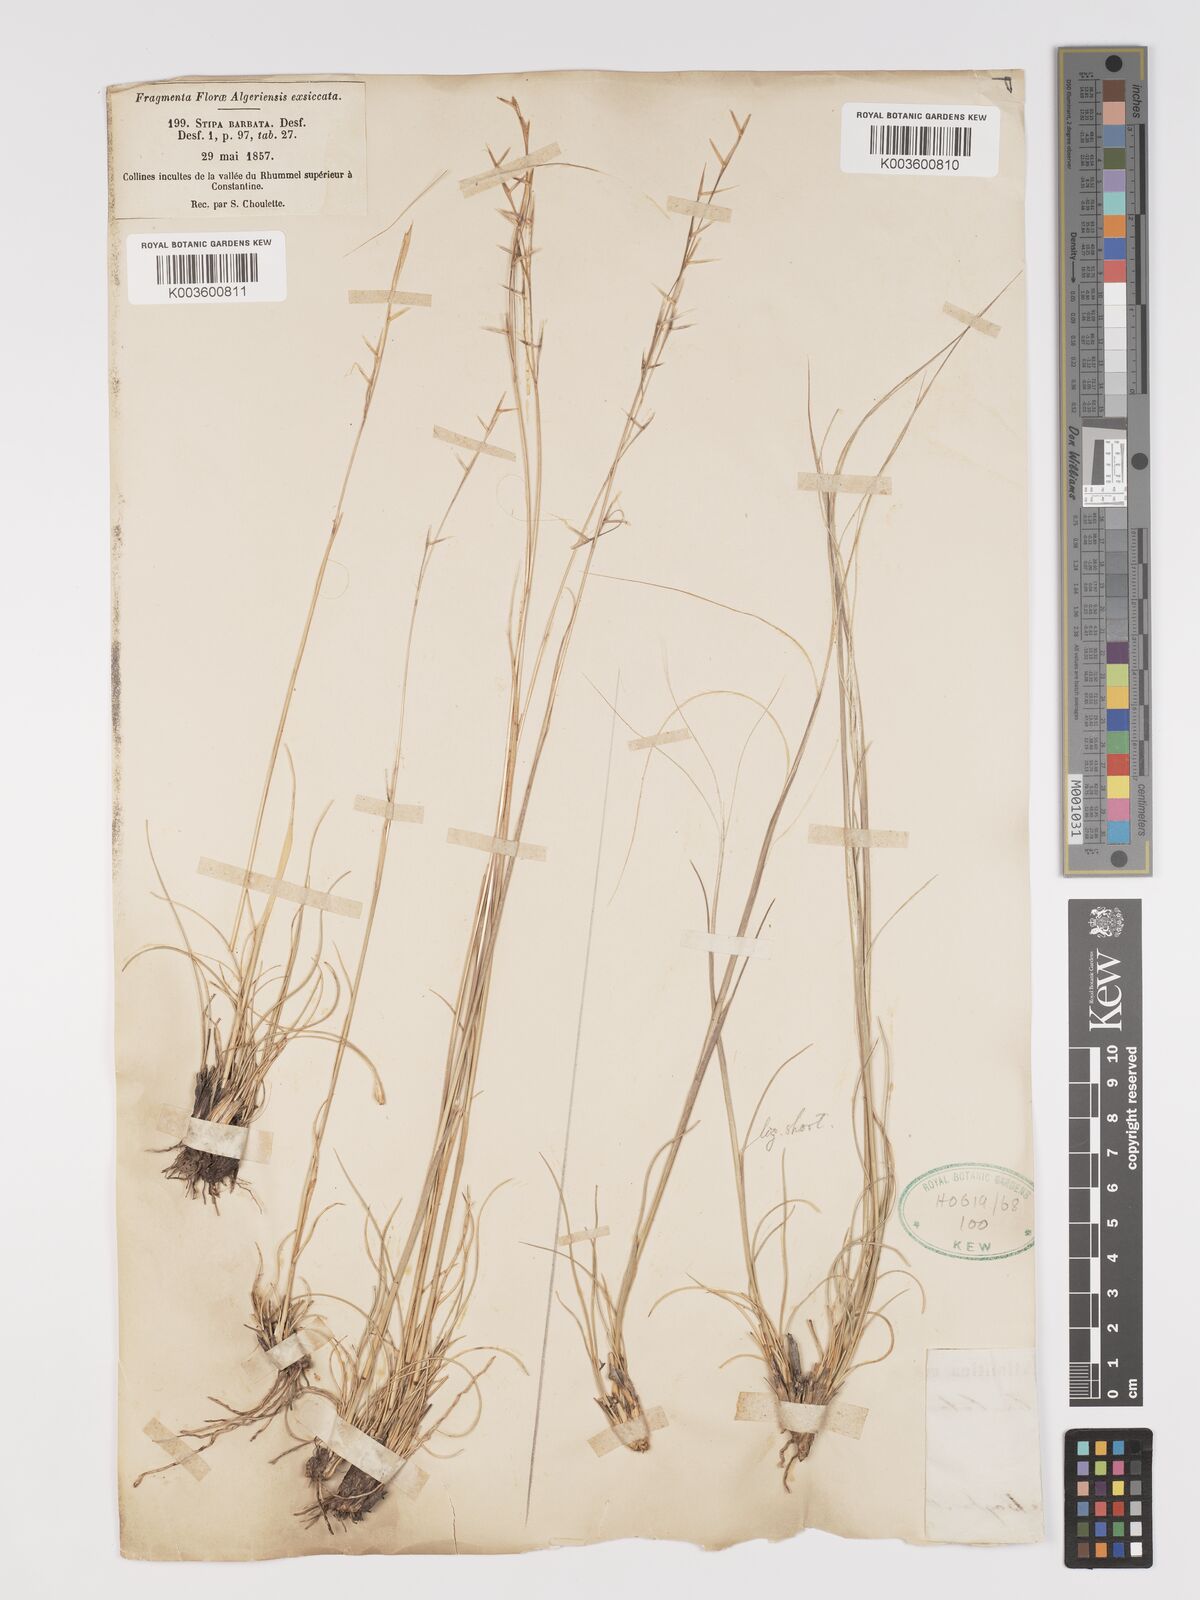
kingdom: Plantae
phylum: Tracheophyta
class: Liliopsida
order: Poales
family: Poaceae
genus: Stipa
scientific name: Stipa barbata
